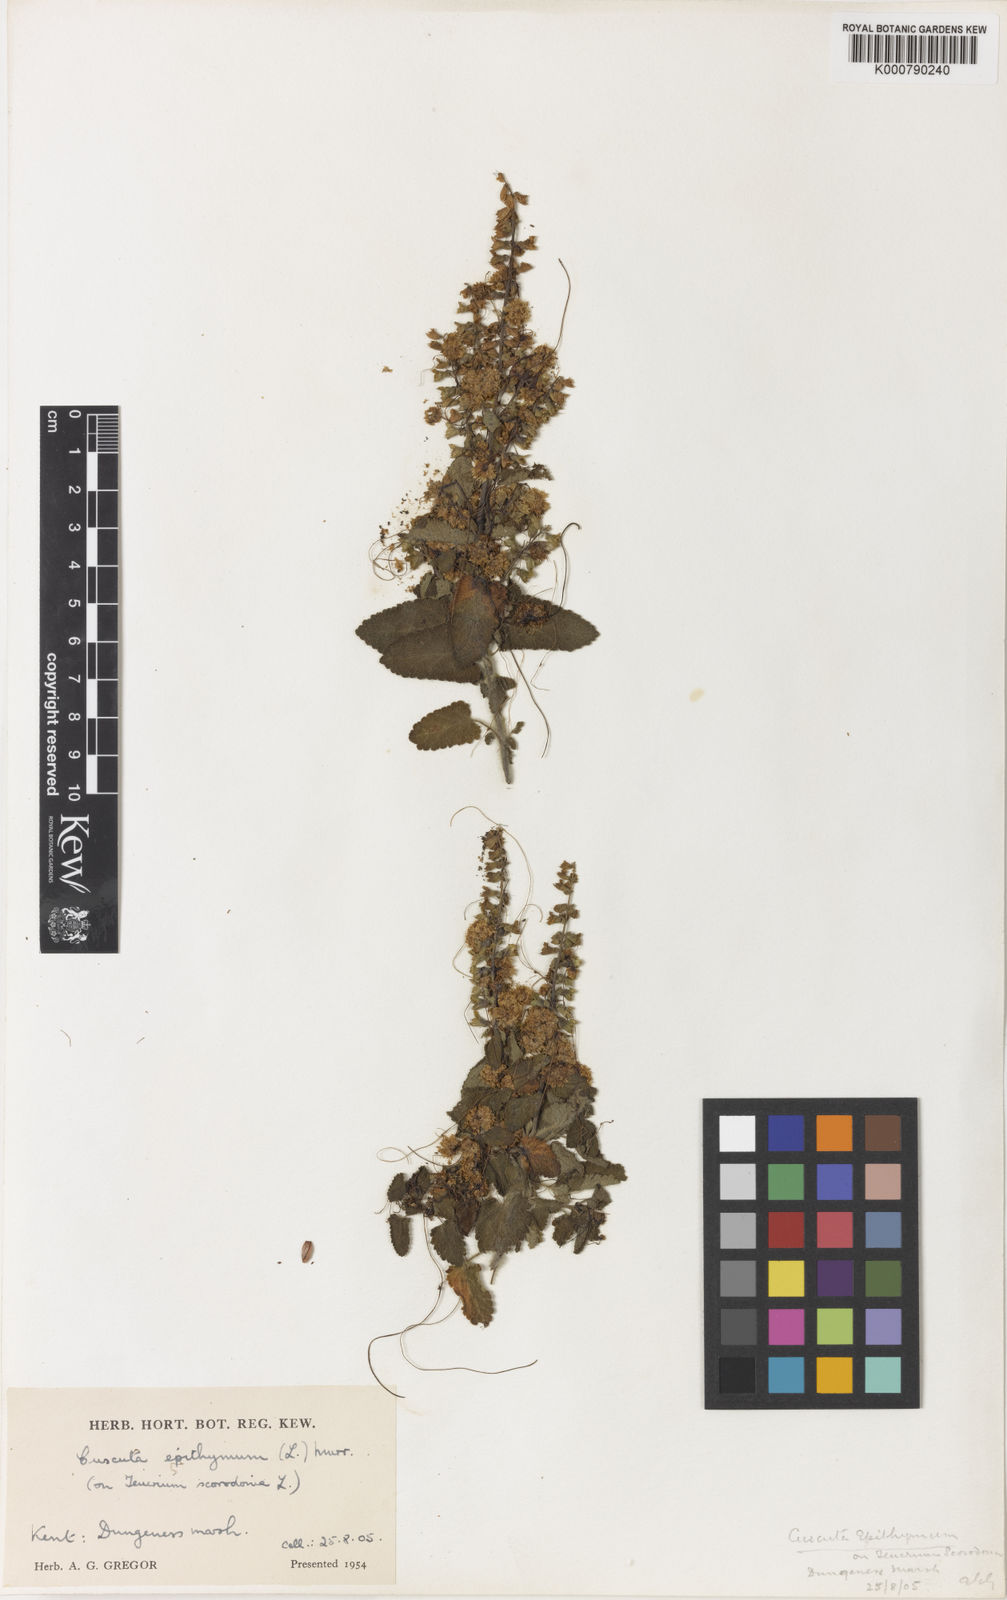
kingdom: Plantae
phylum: Tracheophyta
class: Magnoliopsida
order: Solanales
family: Convolvulaceae
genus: Cuscuta
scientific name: Cuscuta epithymum
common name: Clover dodder
